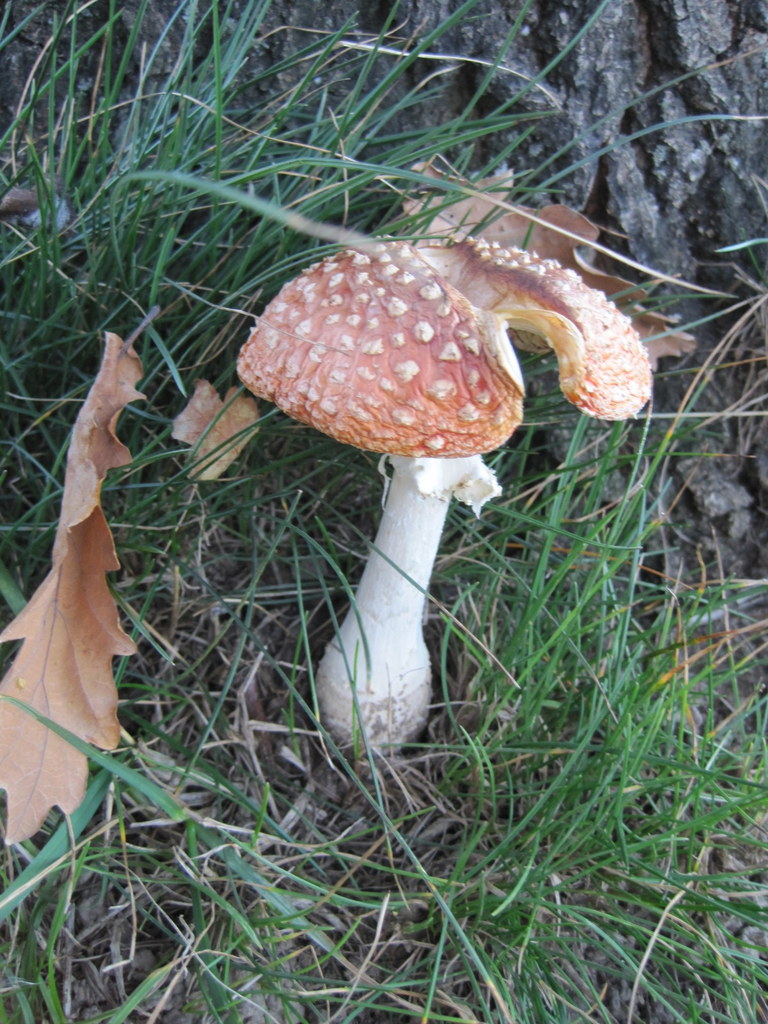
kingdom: Fungi
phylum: Basidiomycota
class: Agaricomycetes
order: Agaricales
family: Amanitaceae
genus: Amanita
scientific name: Amanita muscaria
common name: rød fluesvamp
